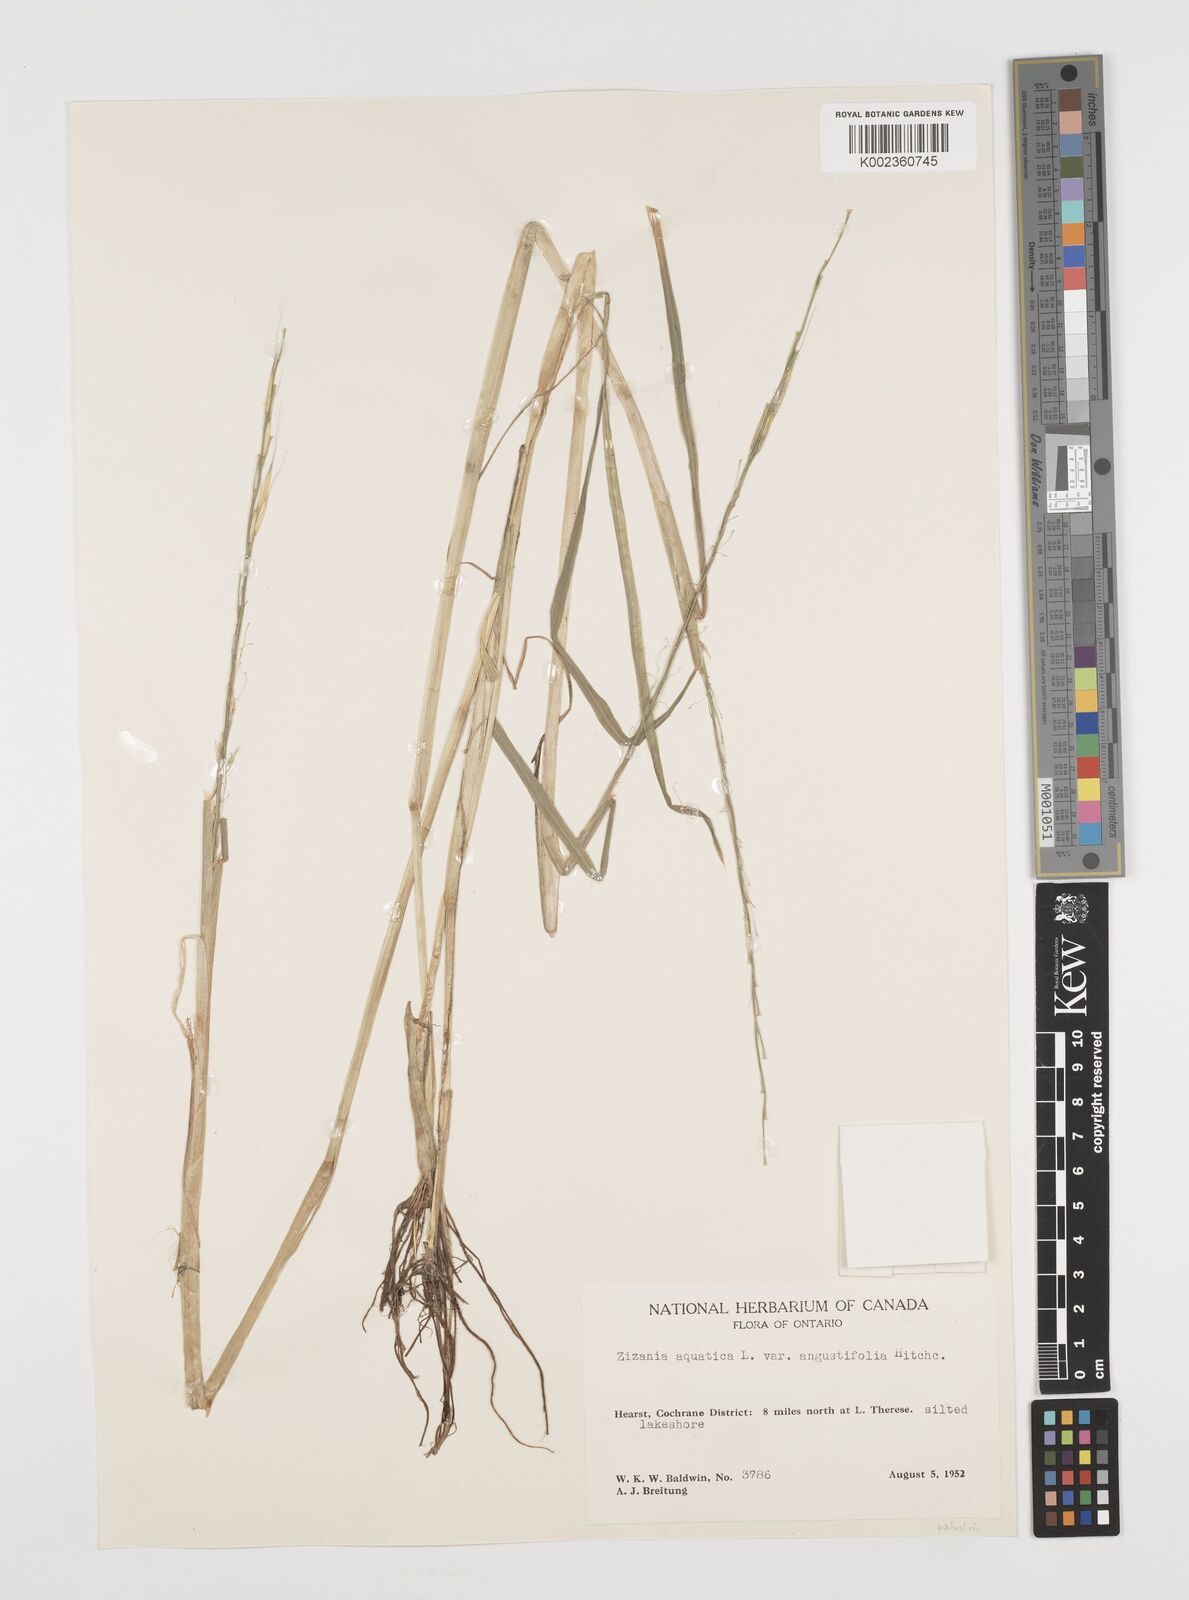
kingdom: Plantae
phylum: Tracheophyta
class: Liliopsida
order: Poales
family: Poaceae
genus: Zizania
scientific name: Zizania aquatica
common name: Annual wildrice
